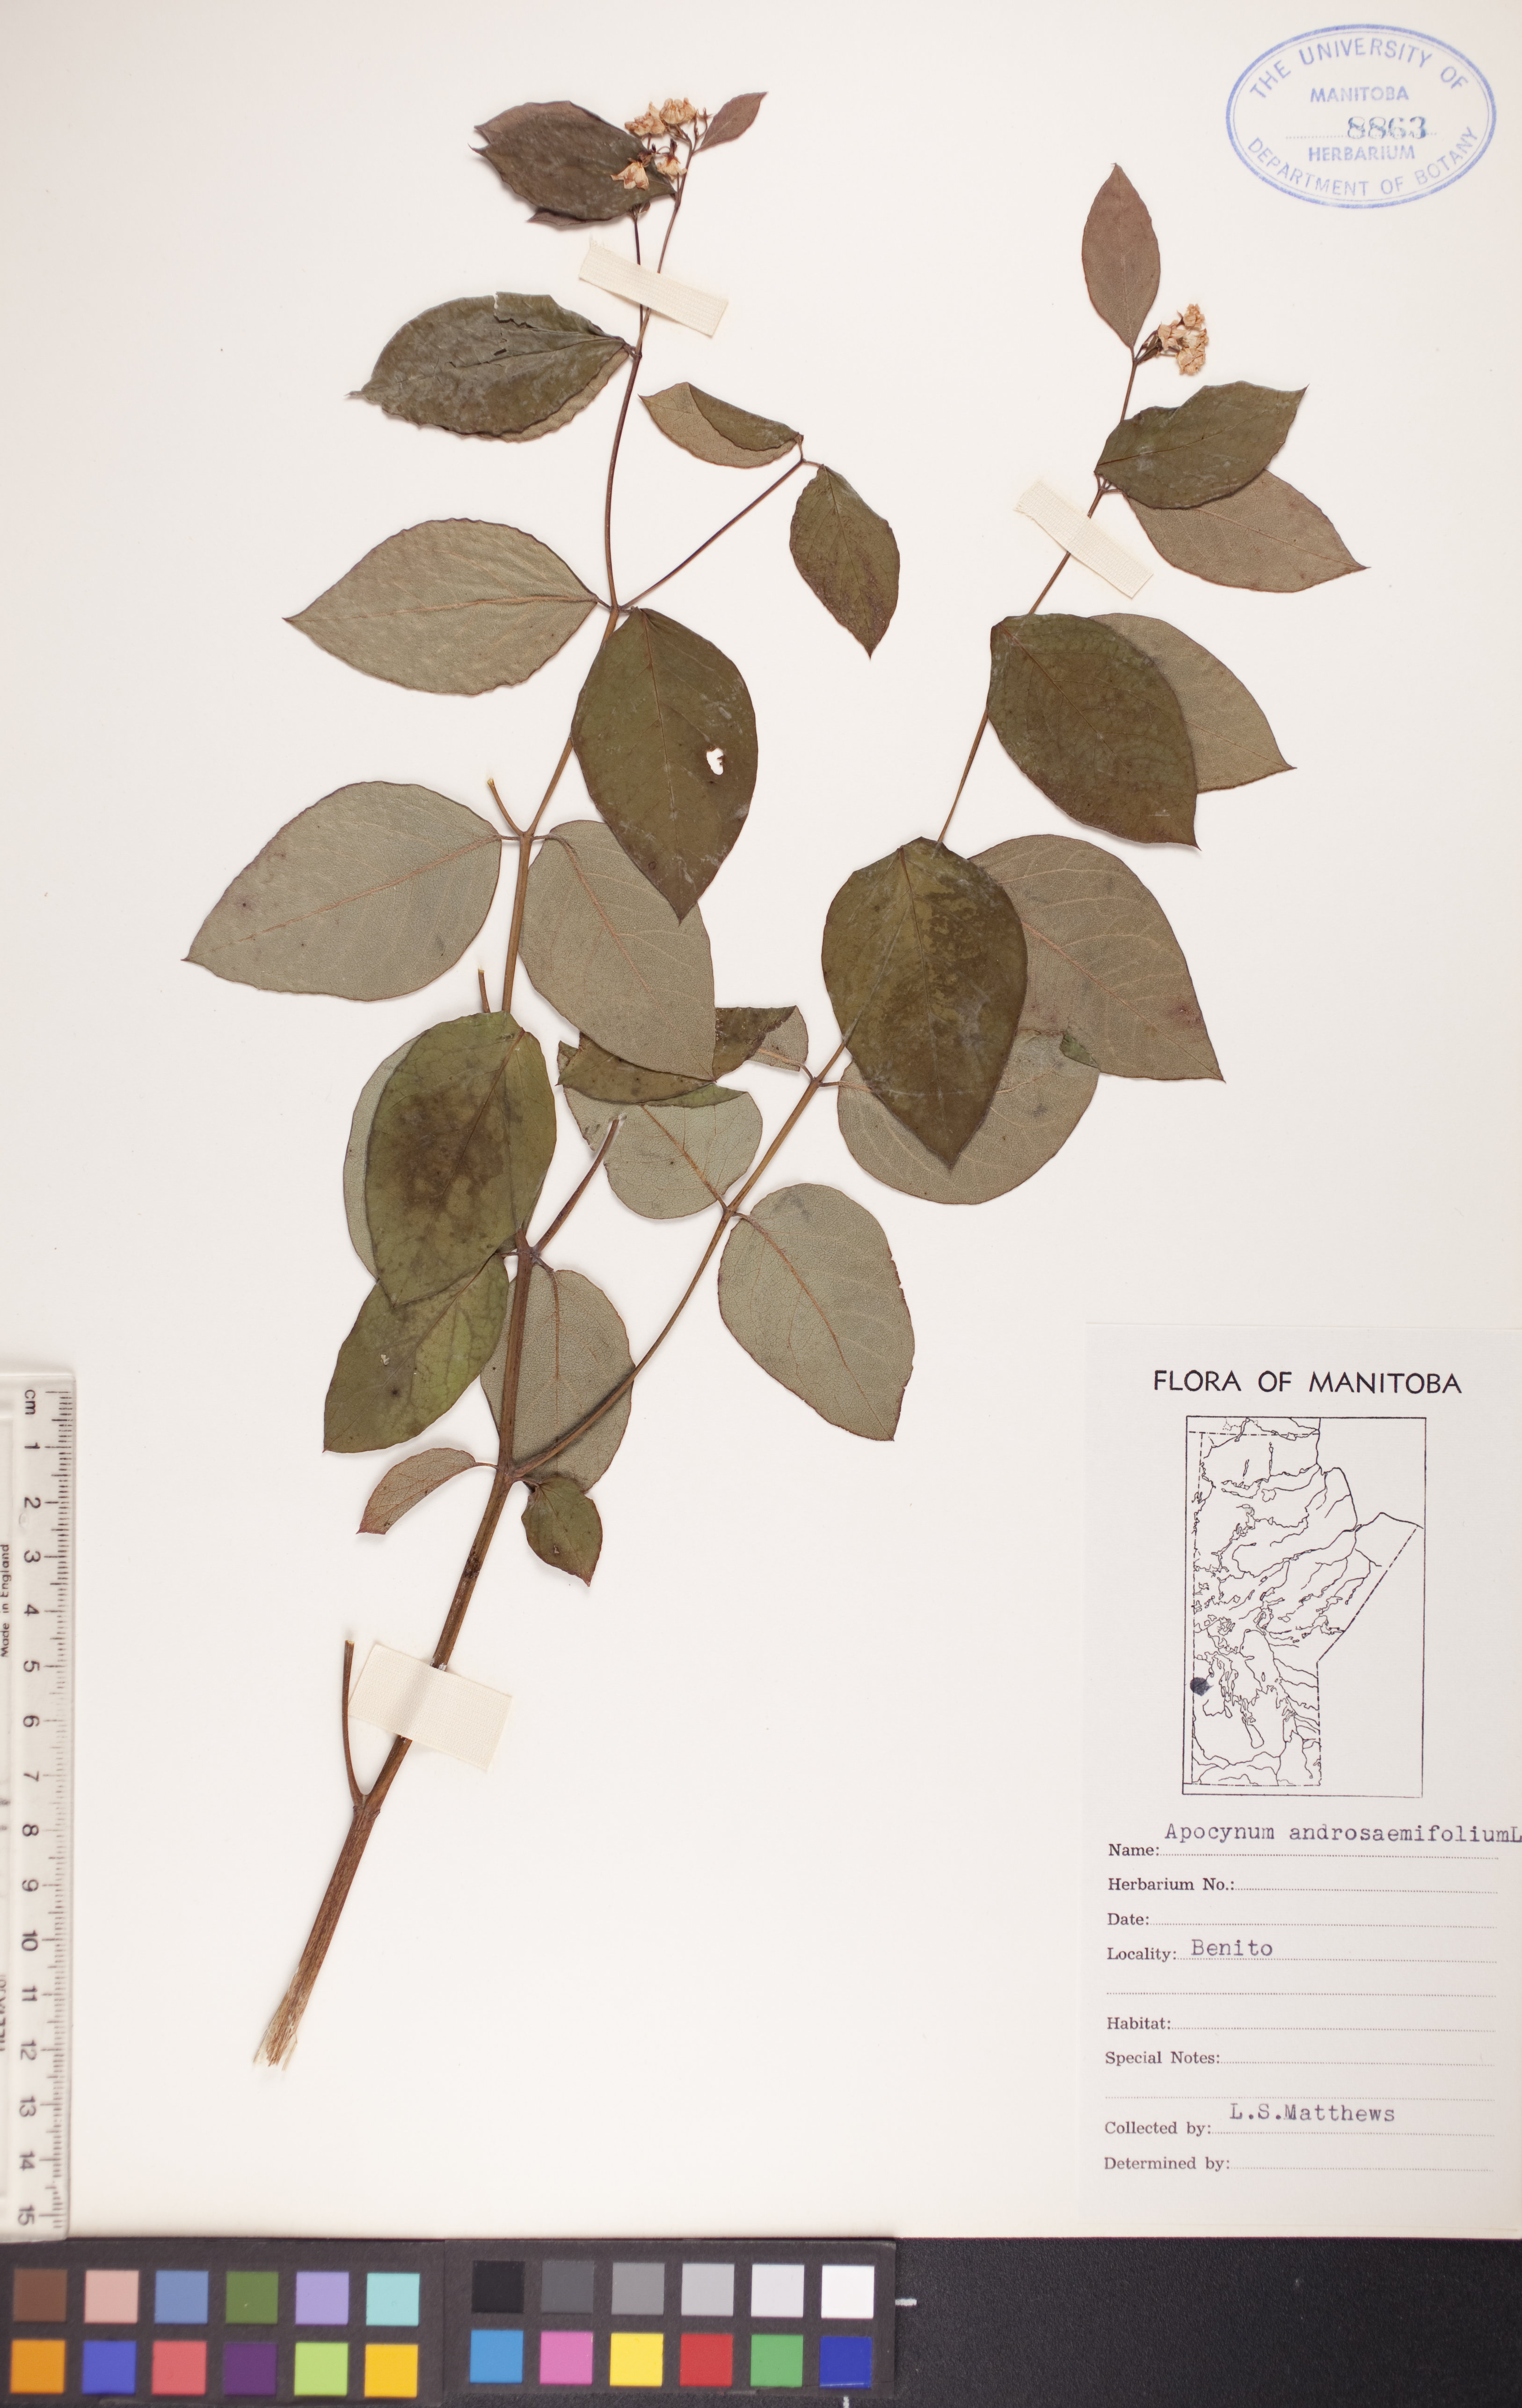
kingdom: Plantae
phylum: Tracheophyta
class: Magnoliopsida
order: Gentianales
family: Apocynaceae
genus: Apocynum
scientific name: Apocynum androsaemifolium
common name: Spreading dogbane
